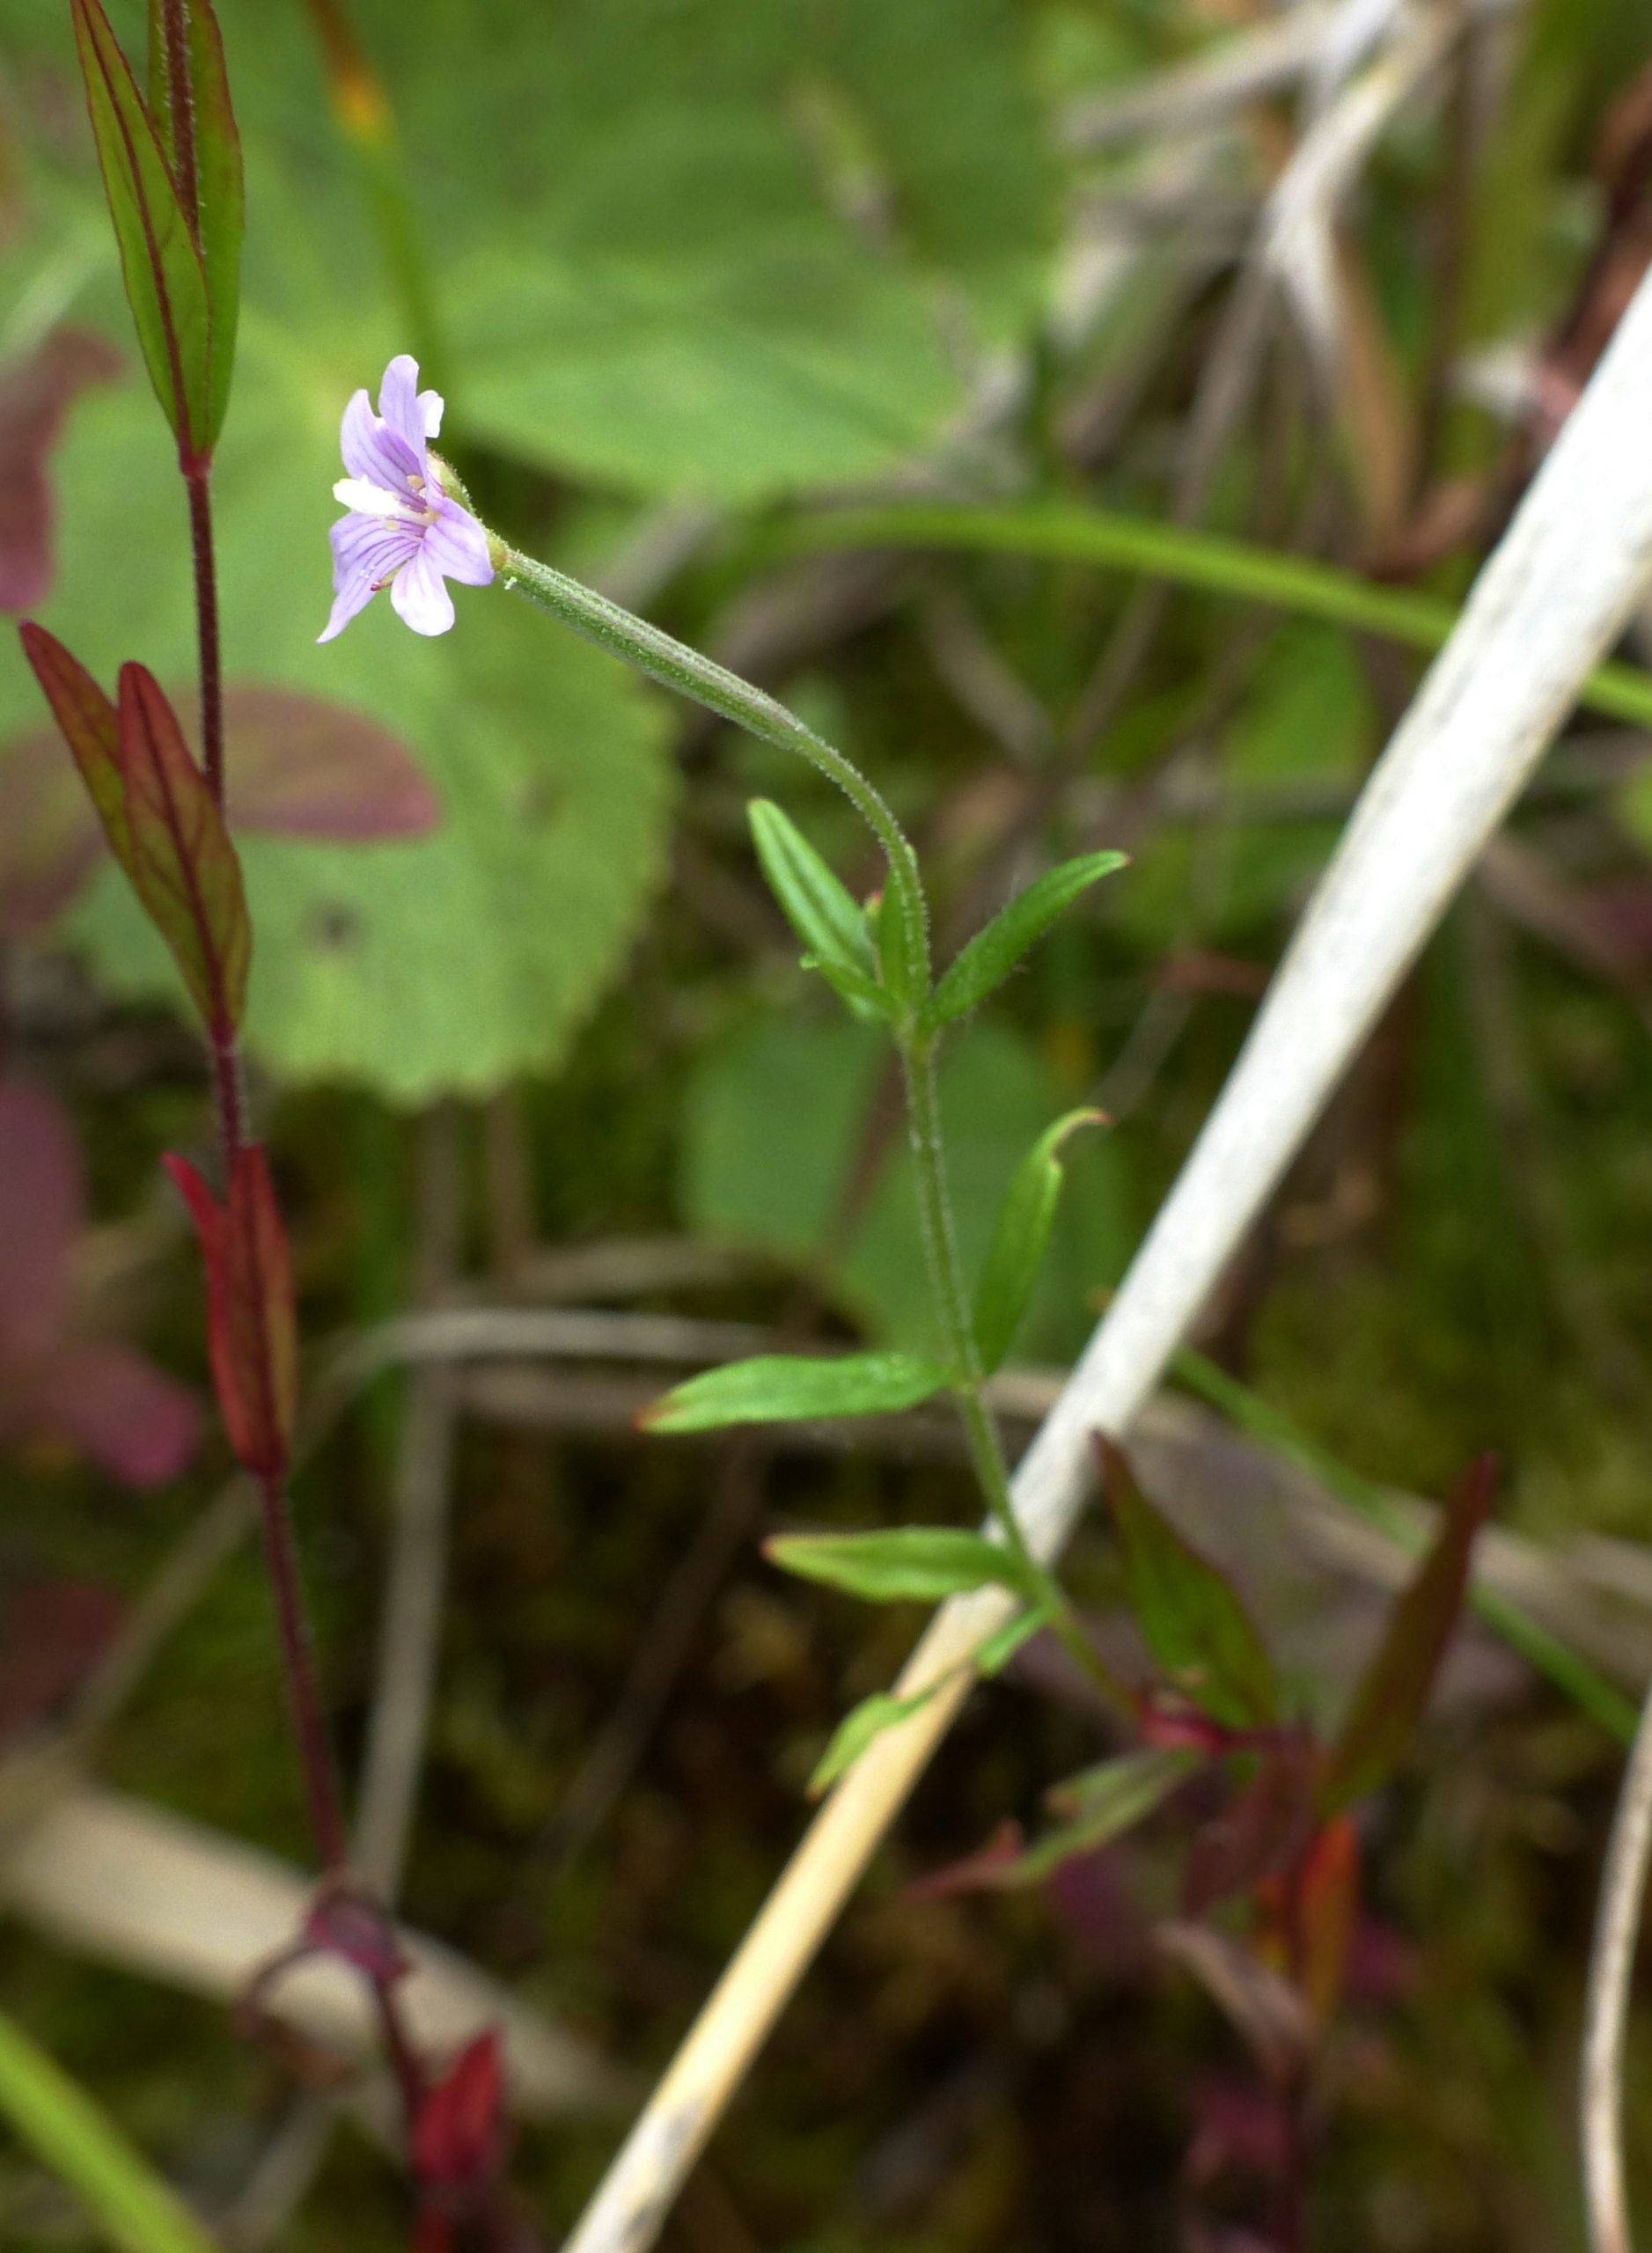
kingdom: Plantae
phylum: Tracheophyta
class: Magnoliopsida
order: Myrtales
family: Onagraceae
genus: Epilobium
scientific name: Epilobium palustre
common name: Kær-dueurt
